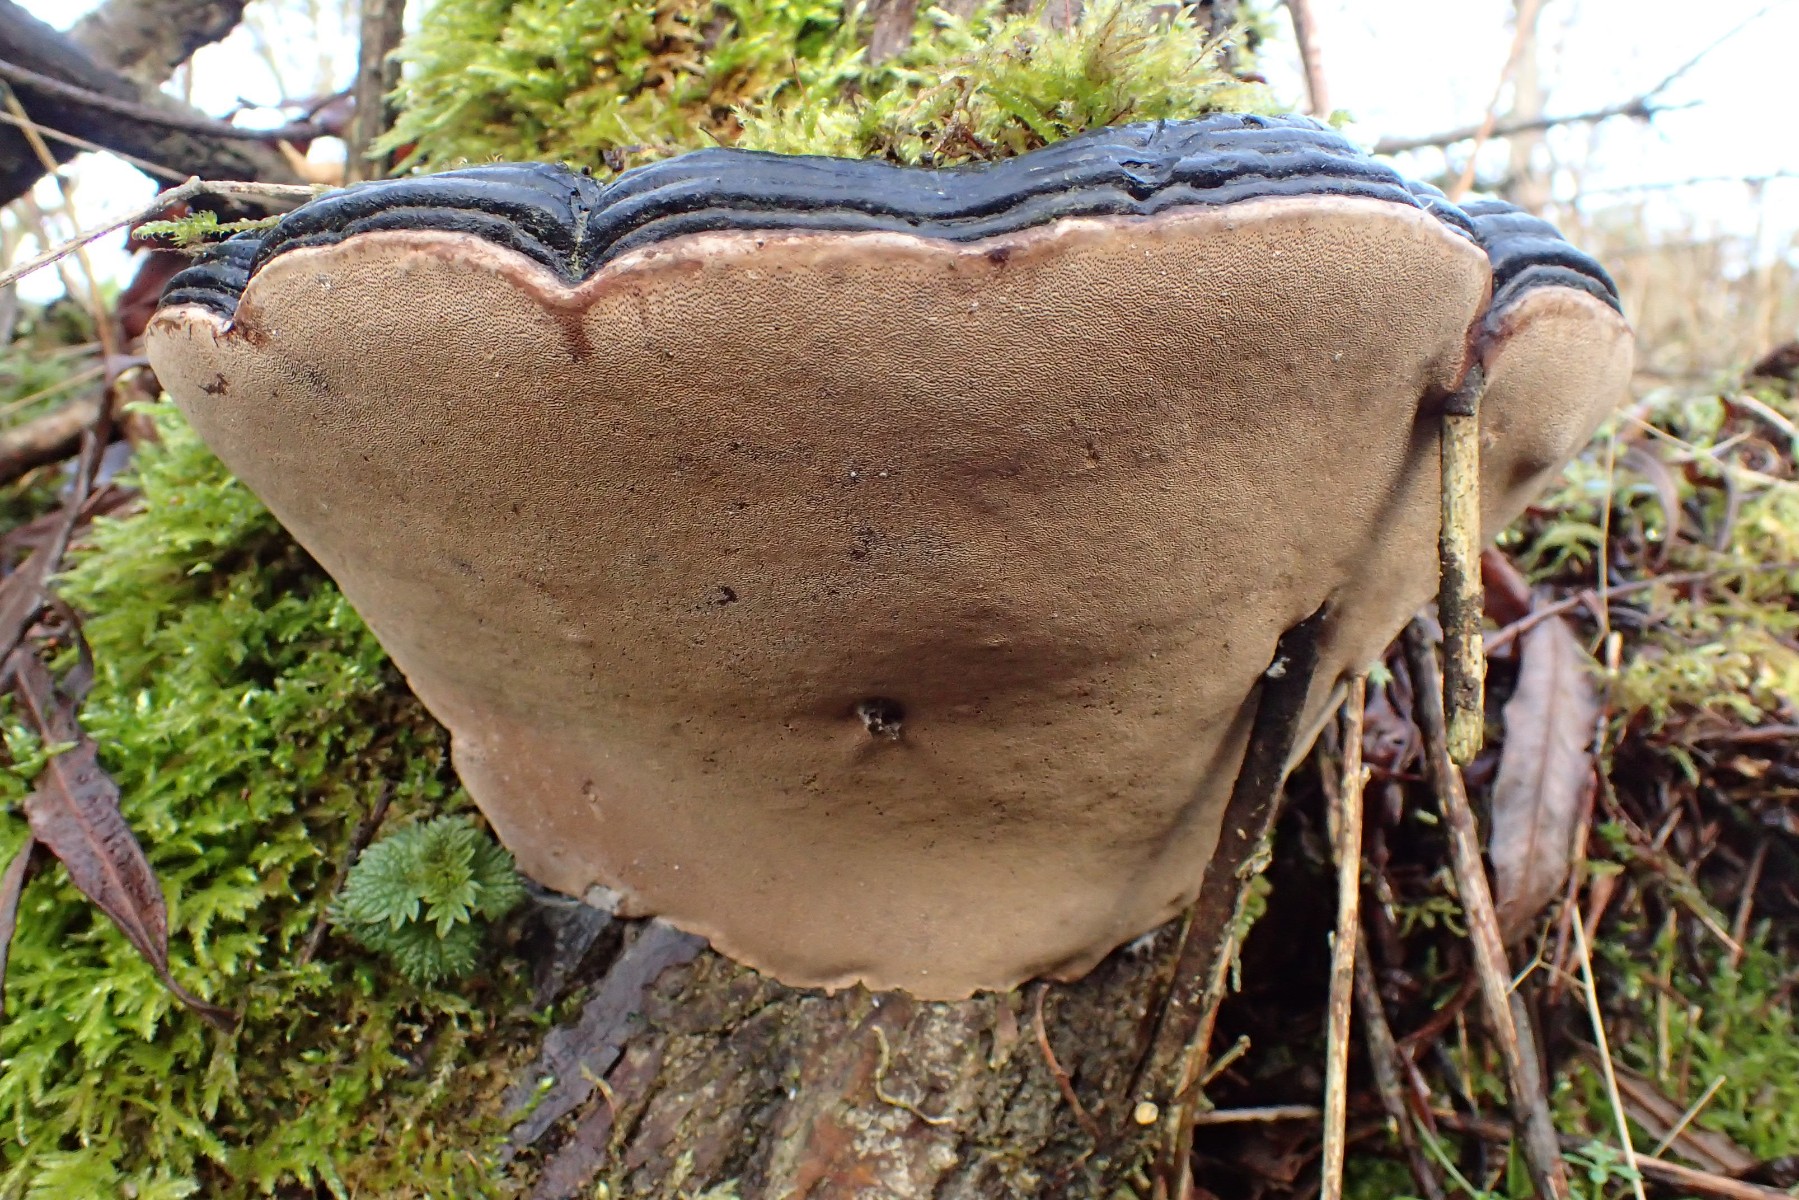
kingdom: Fungi
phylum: Basidiomycota
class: Agaricomycetes
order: Hymenochaetales
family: Hymenochaetaceae
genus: Phellinus
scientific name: Phellinus igniarius
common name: almindelig ildporesvamp
